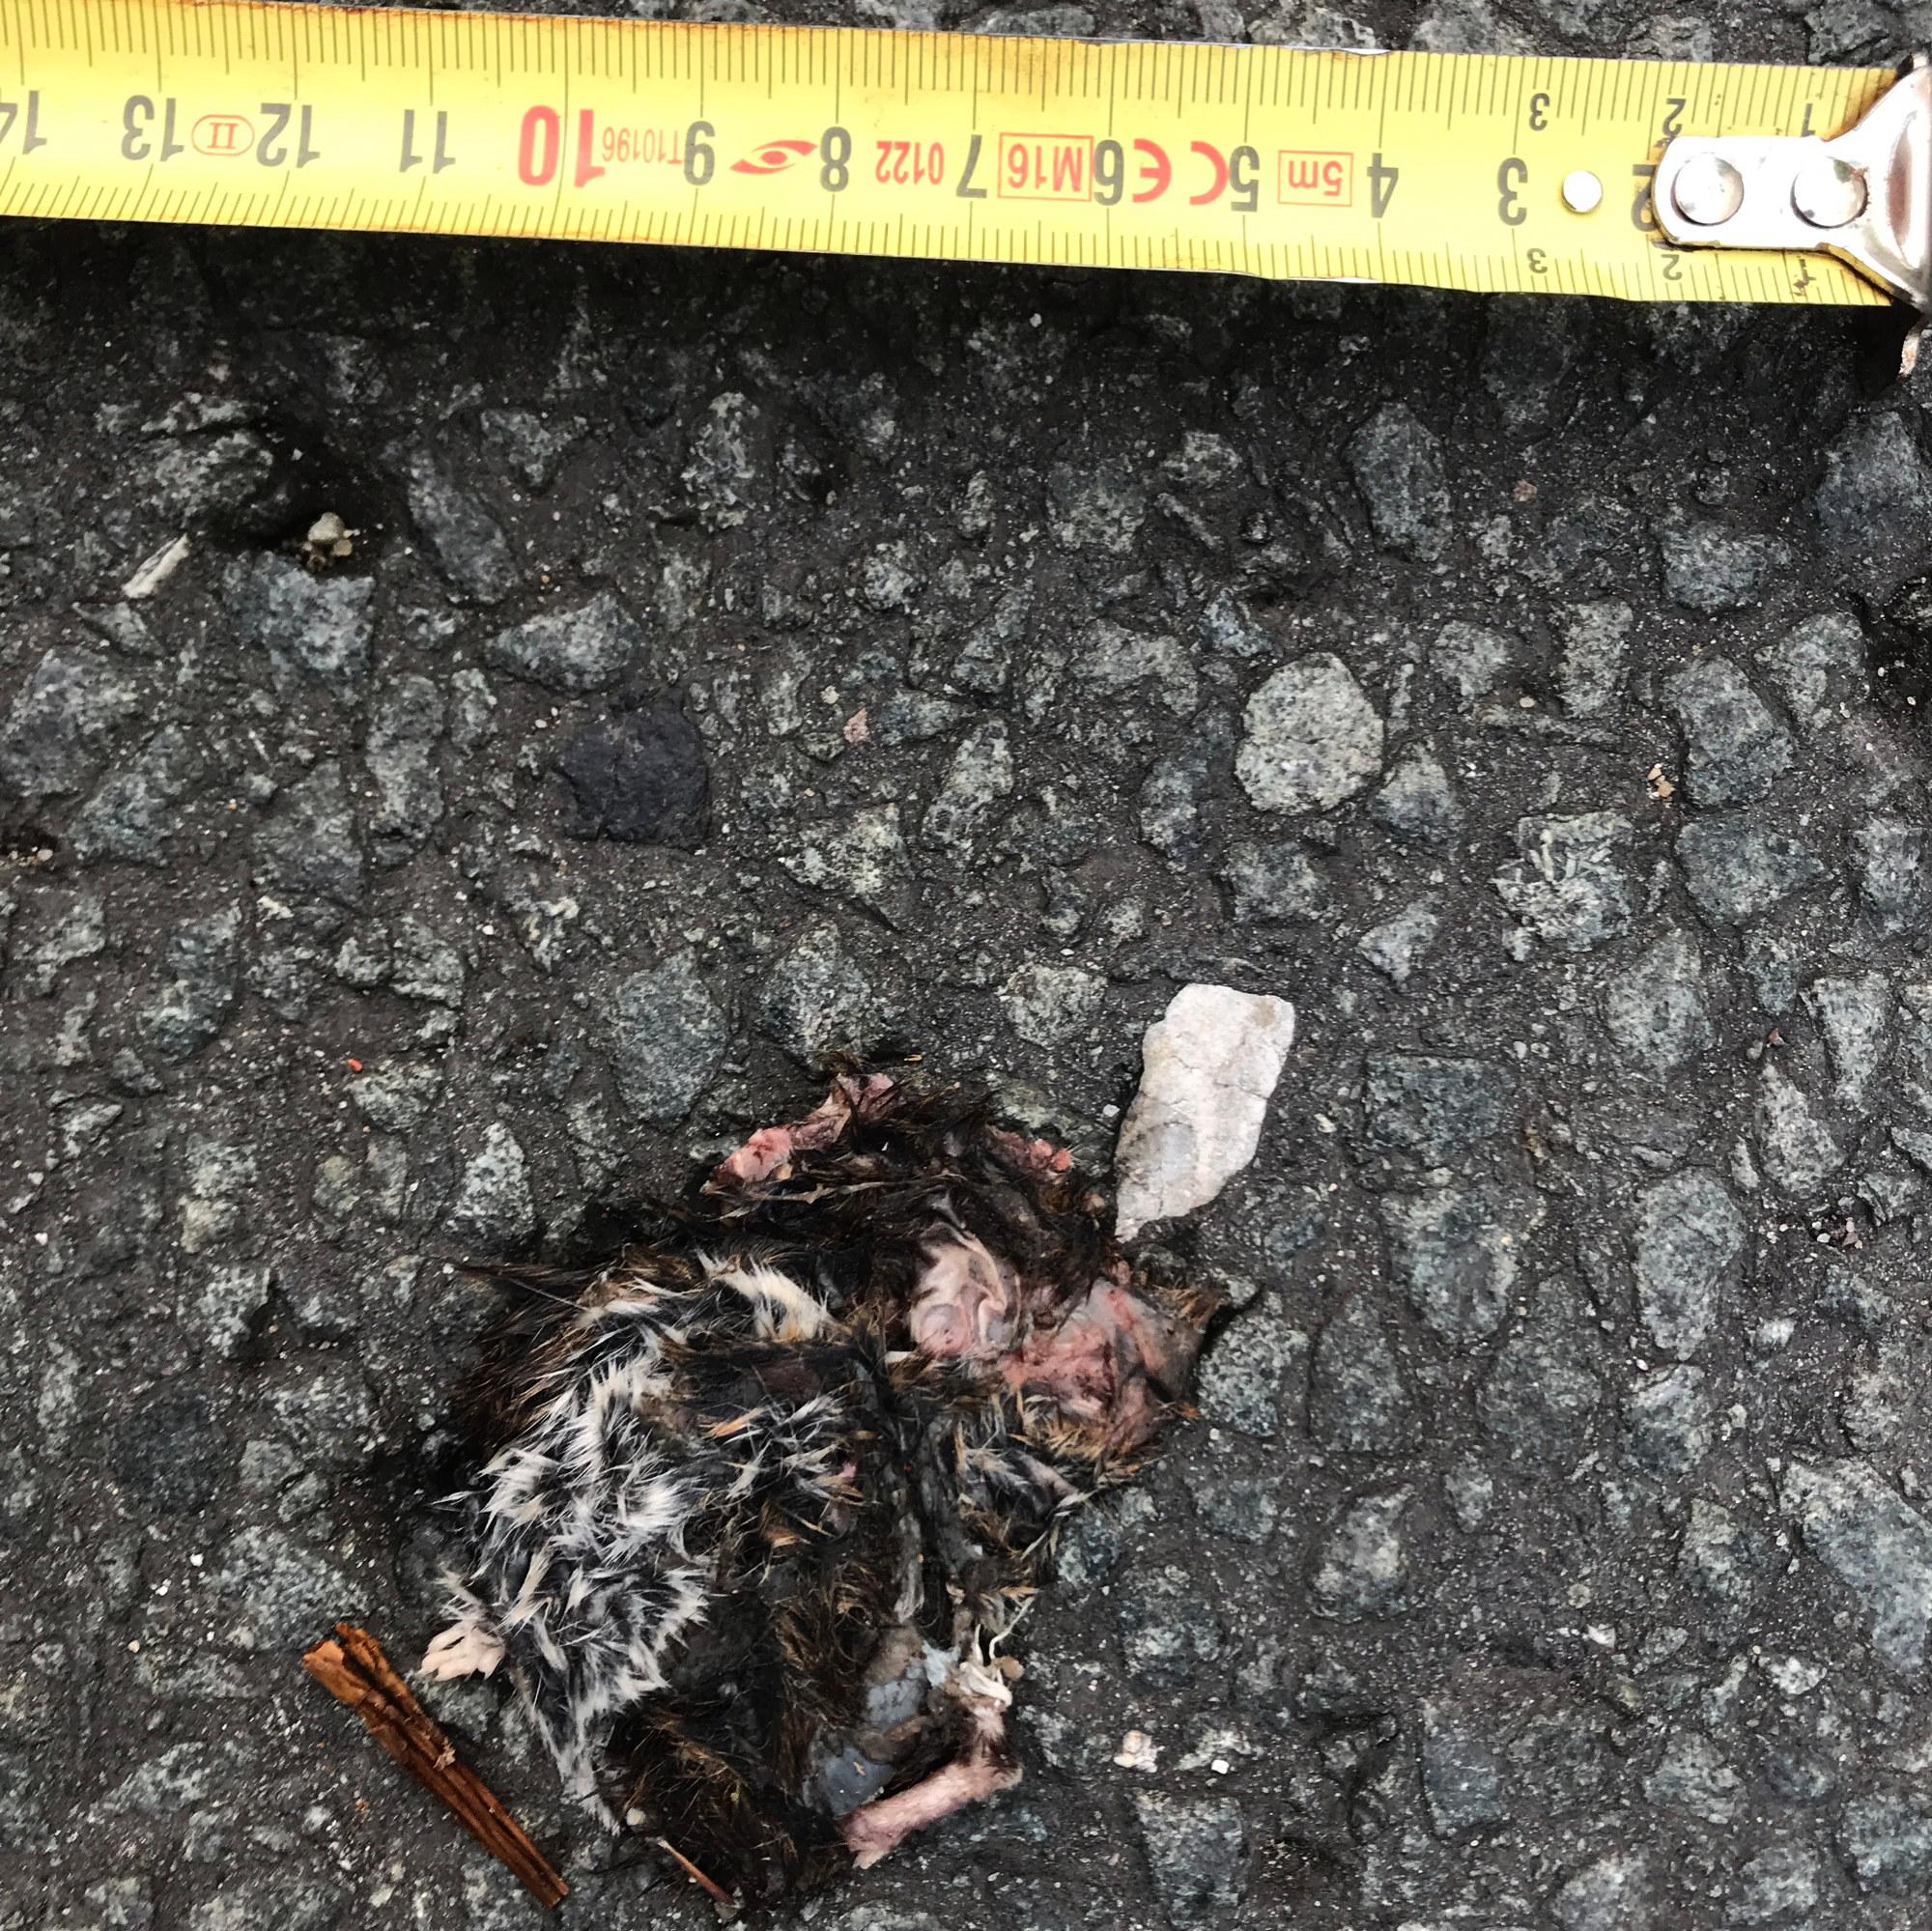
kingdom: Animalia
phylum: Chordata
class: Mammalia
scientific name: Mammalia
